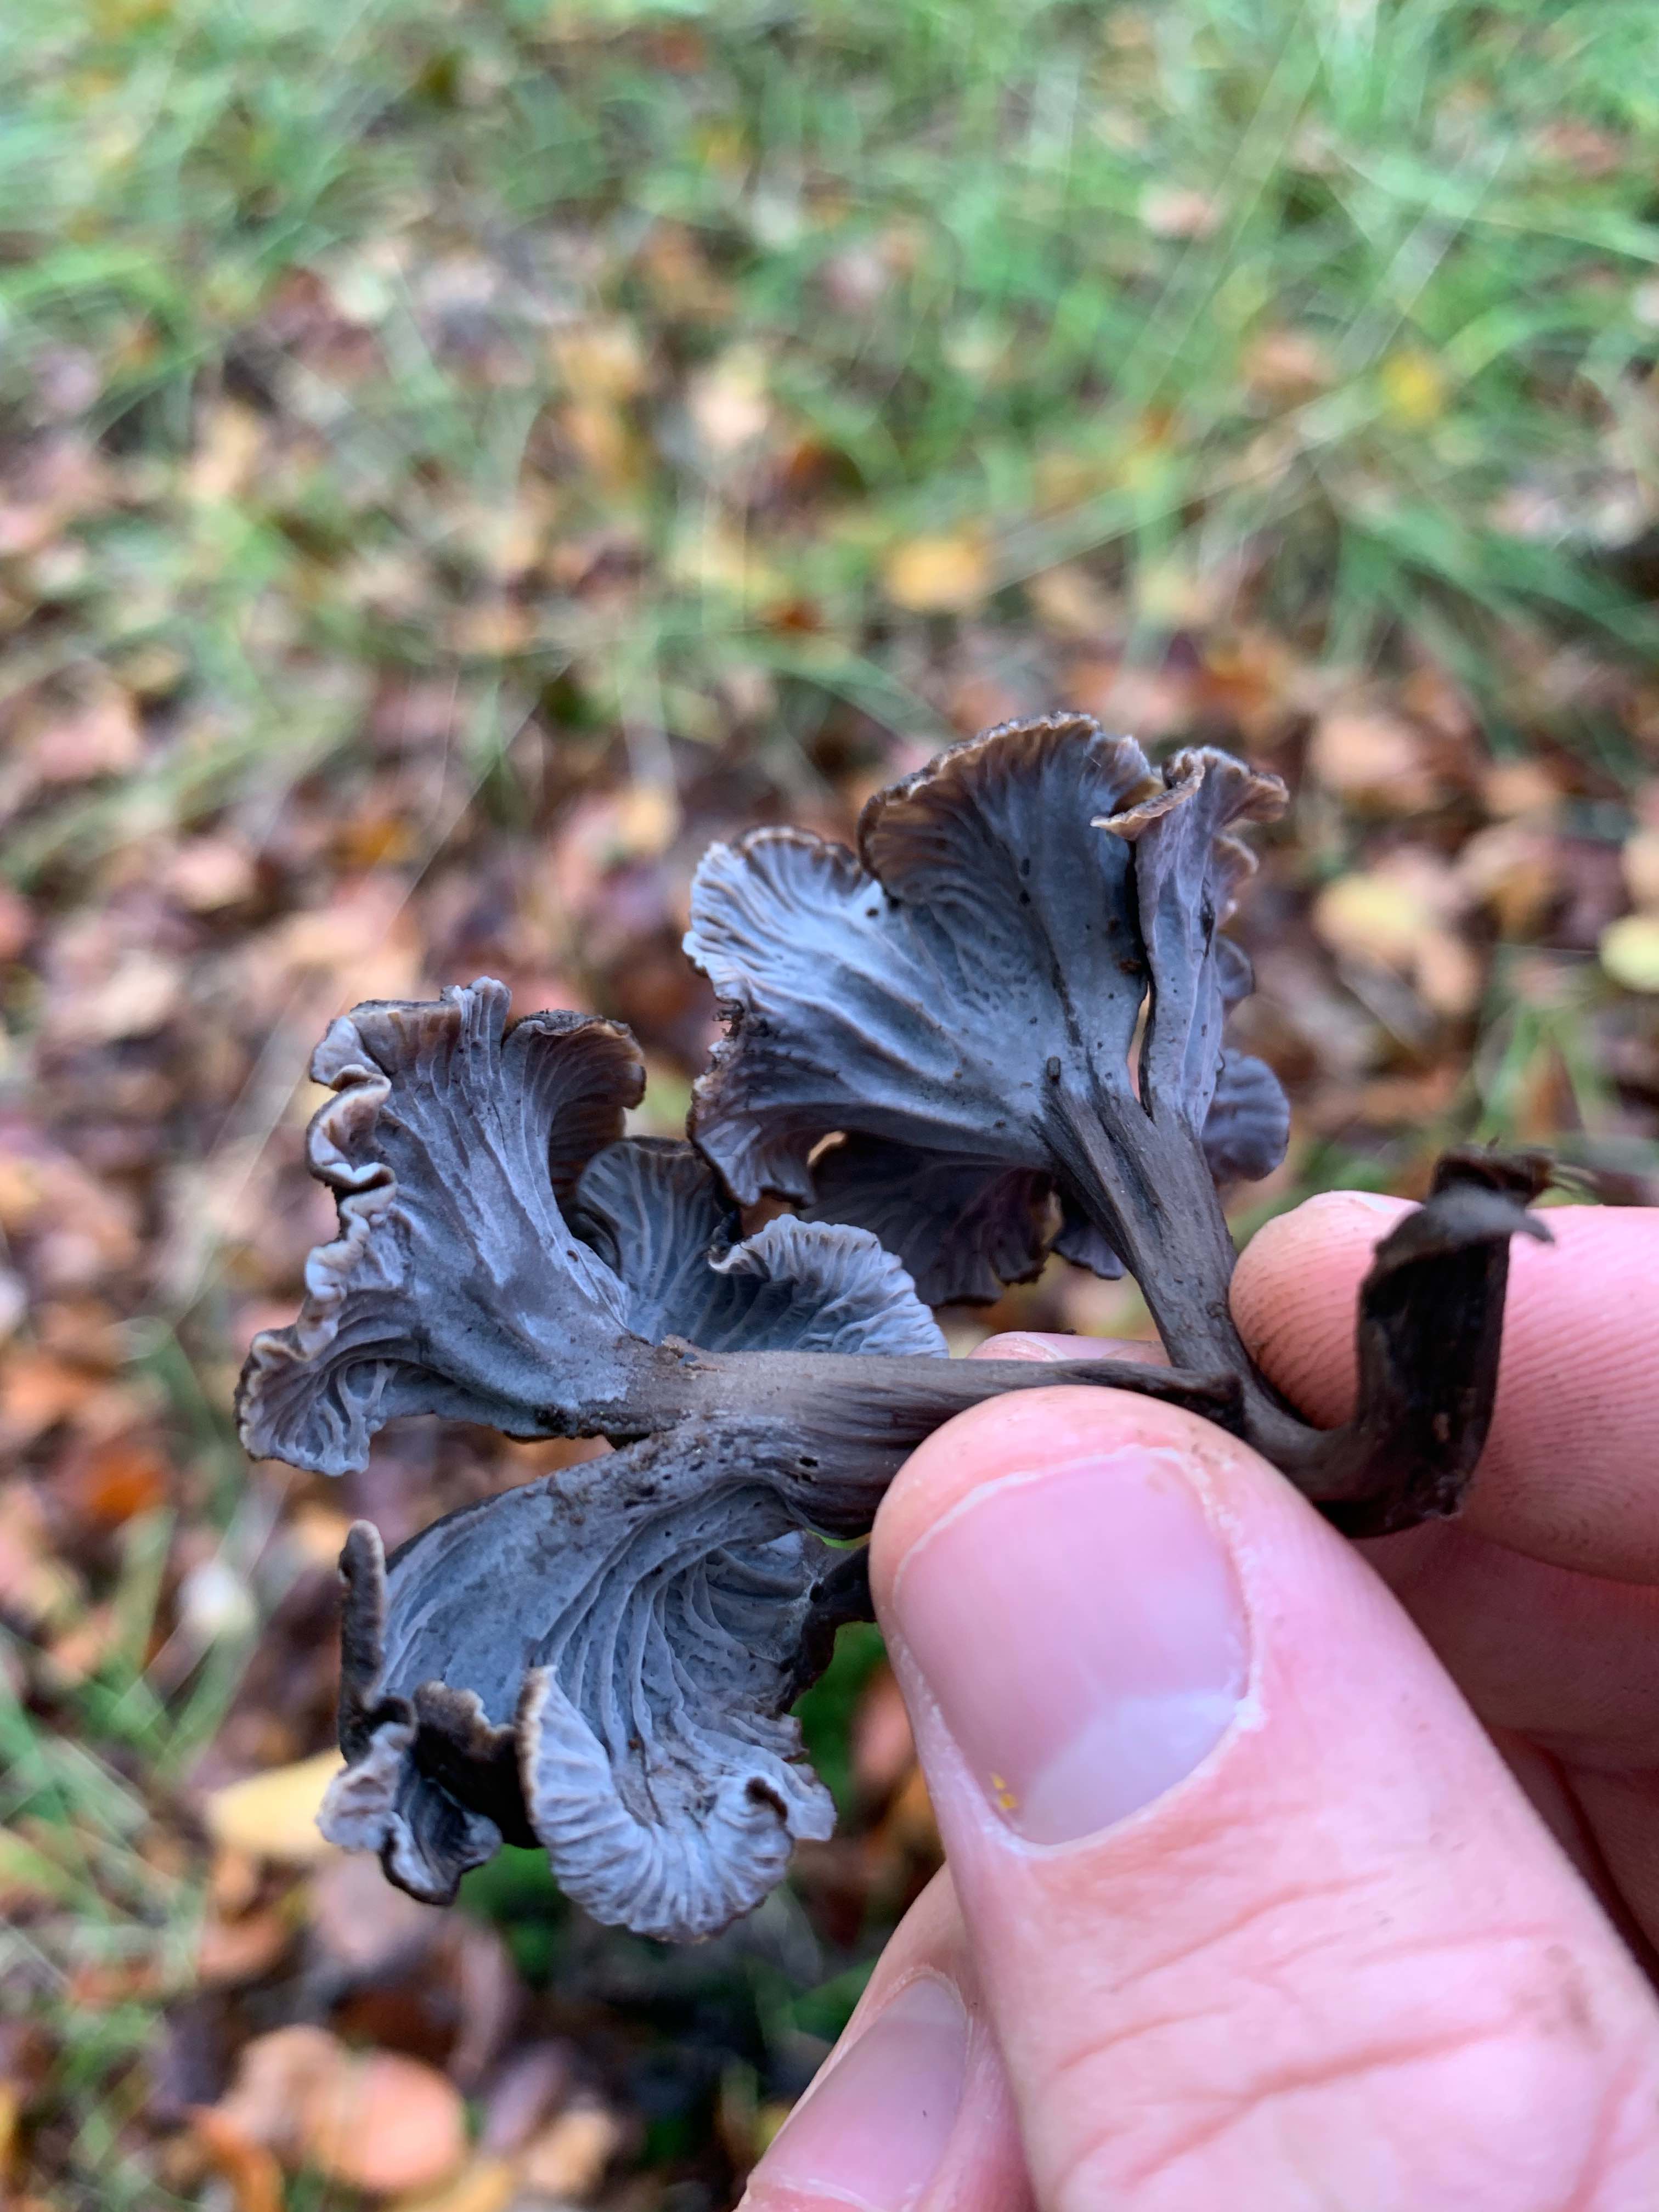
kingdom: Fungi
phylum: Basidiomycota
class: Agaricomycetes
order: Cantharellales
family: Hydnaceae
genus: Cantharellus
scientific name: Cantharellus cinereus
